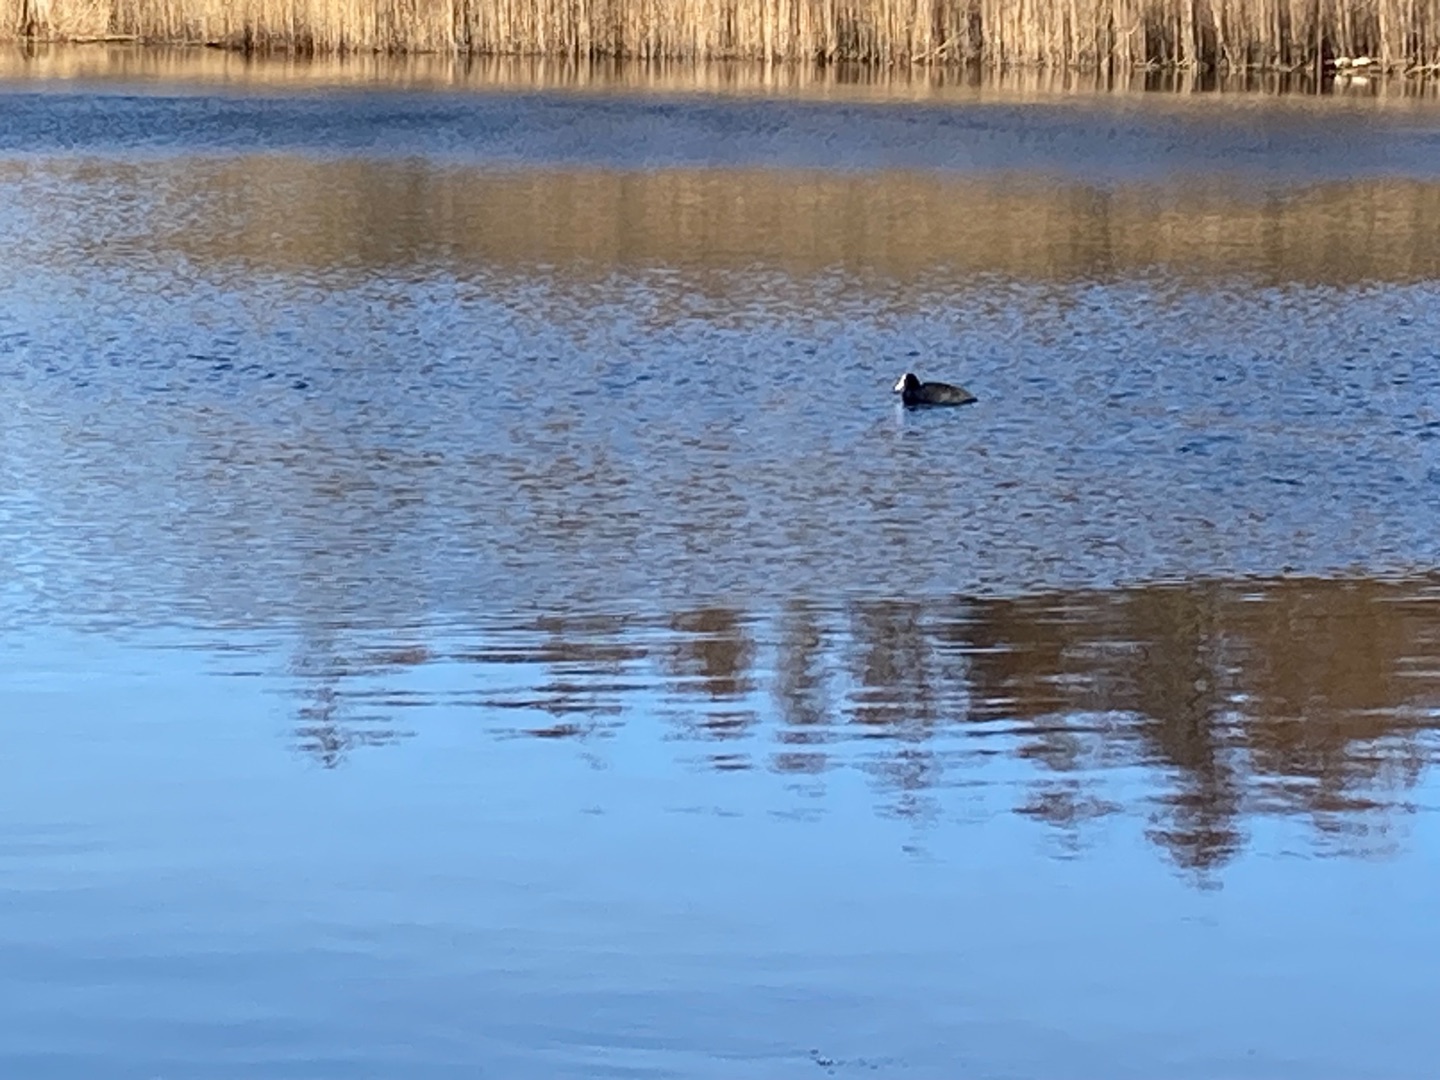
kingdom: Animalia
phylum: Chordata
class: Aves
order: Gruiformes
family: Rallidae
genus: Fulica
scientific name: Fulica atra
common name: Blishøne
